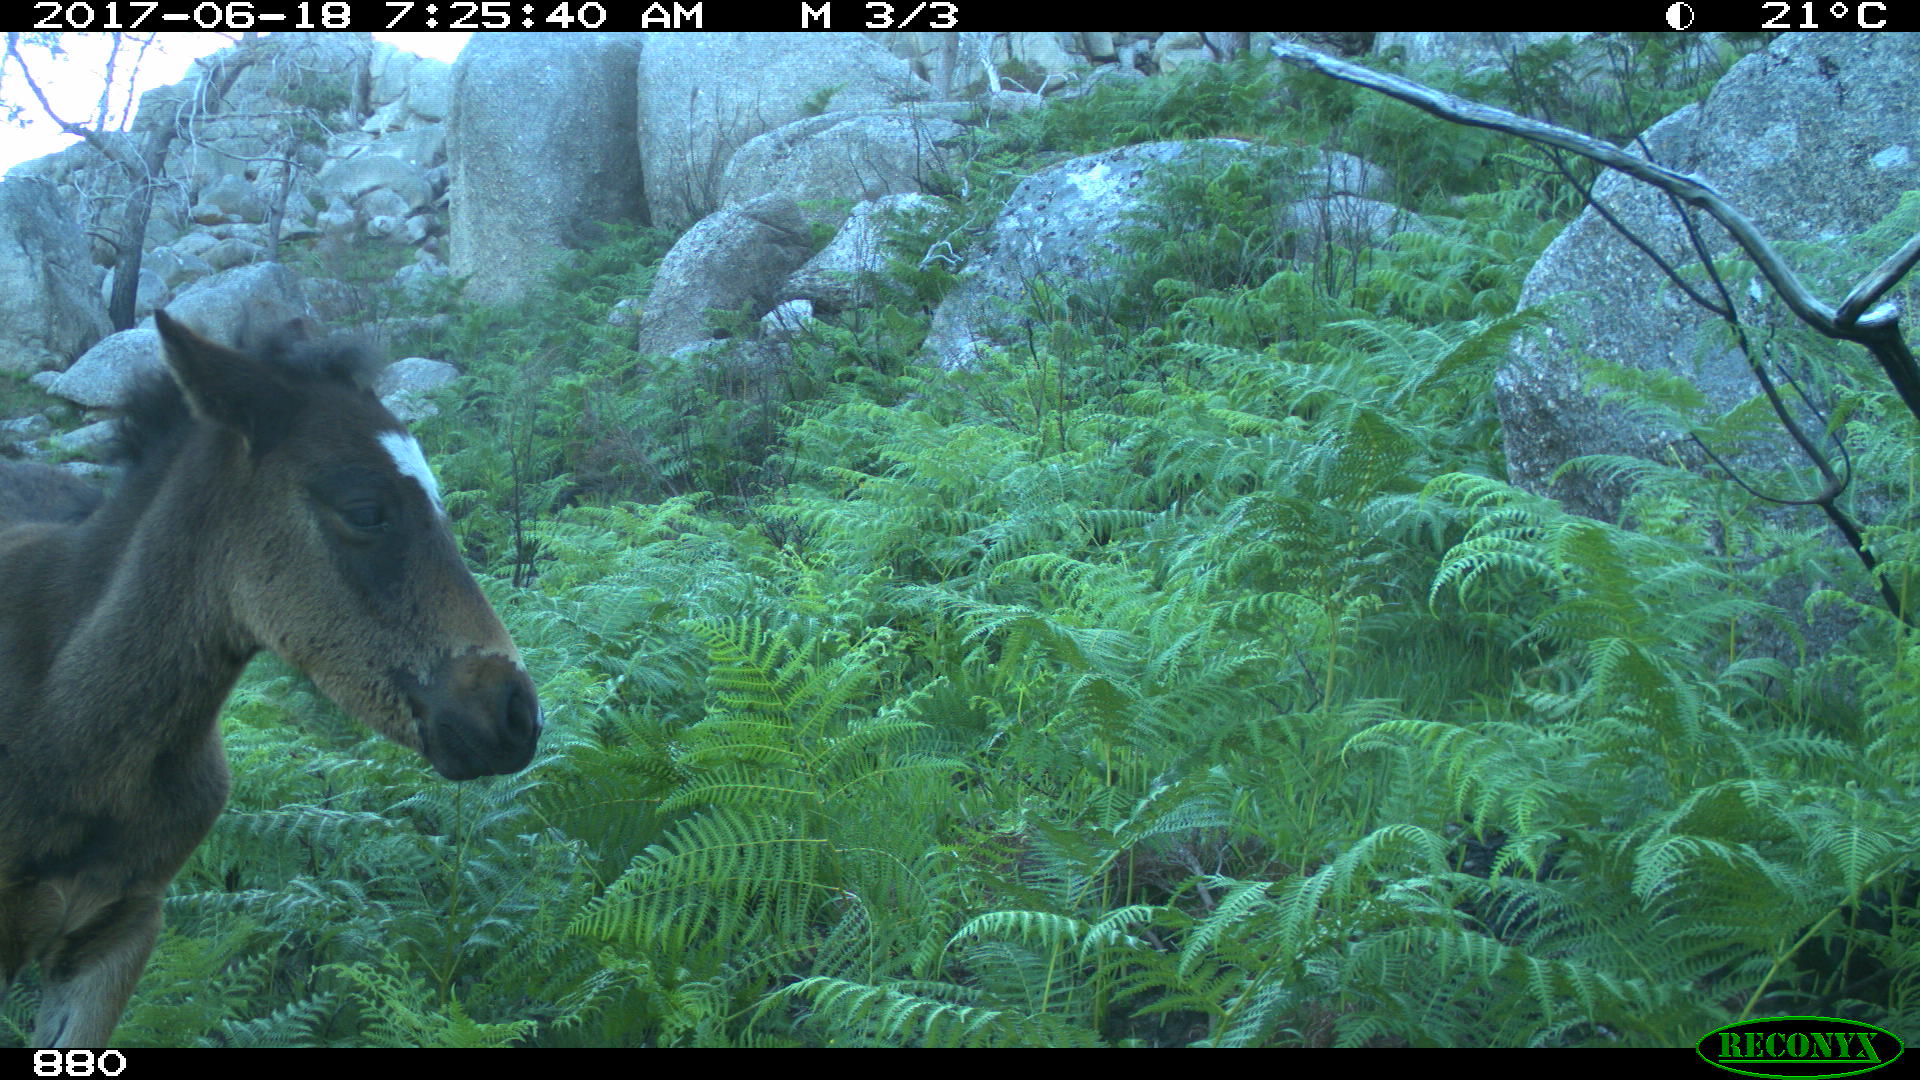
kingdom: Animalia
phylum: Chordata
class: Mammalia
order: Perissodactyla
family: Equidae
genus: Equus
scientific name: Equus caballus
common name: Horse
